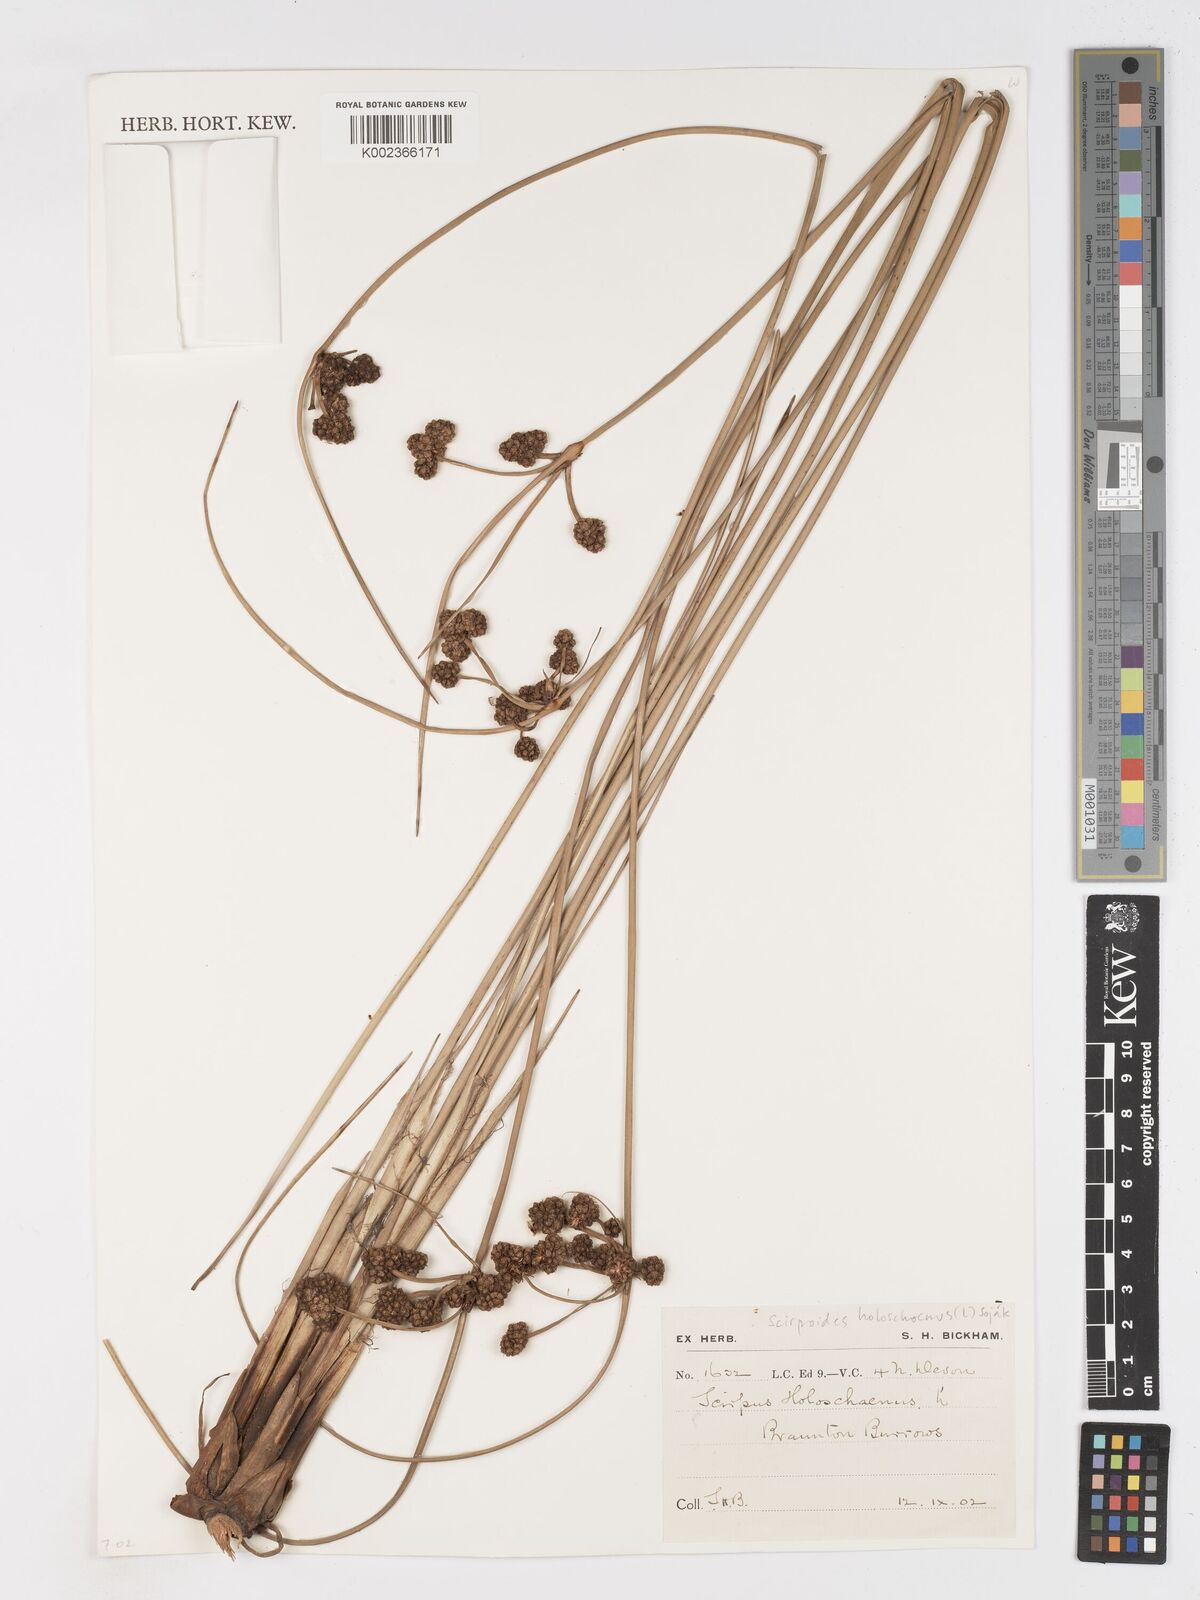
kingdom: Plantae
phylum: Tracheophyta
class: Liliopsida
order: Poales
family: Cyperaceae
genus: Scirpoides
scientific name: Scirpoides holoschoenus
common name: Round-headed club-rush
